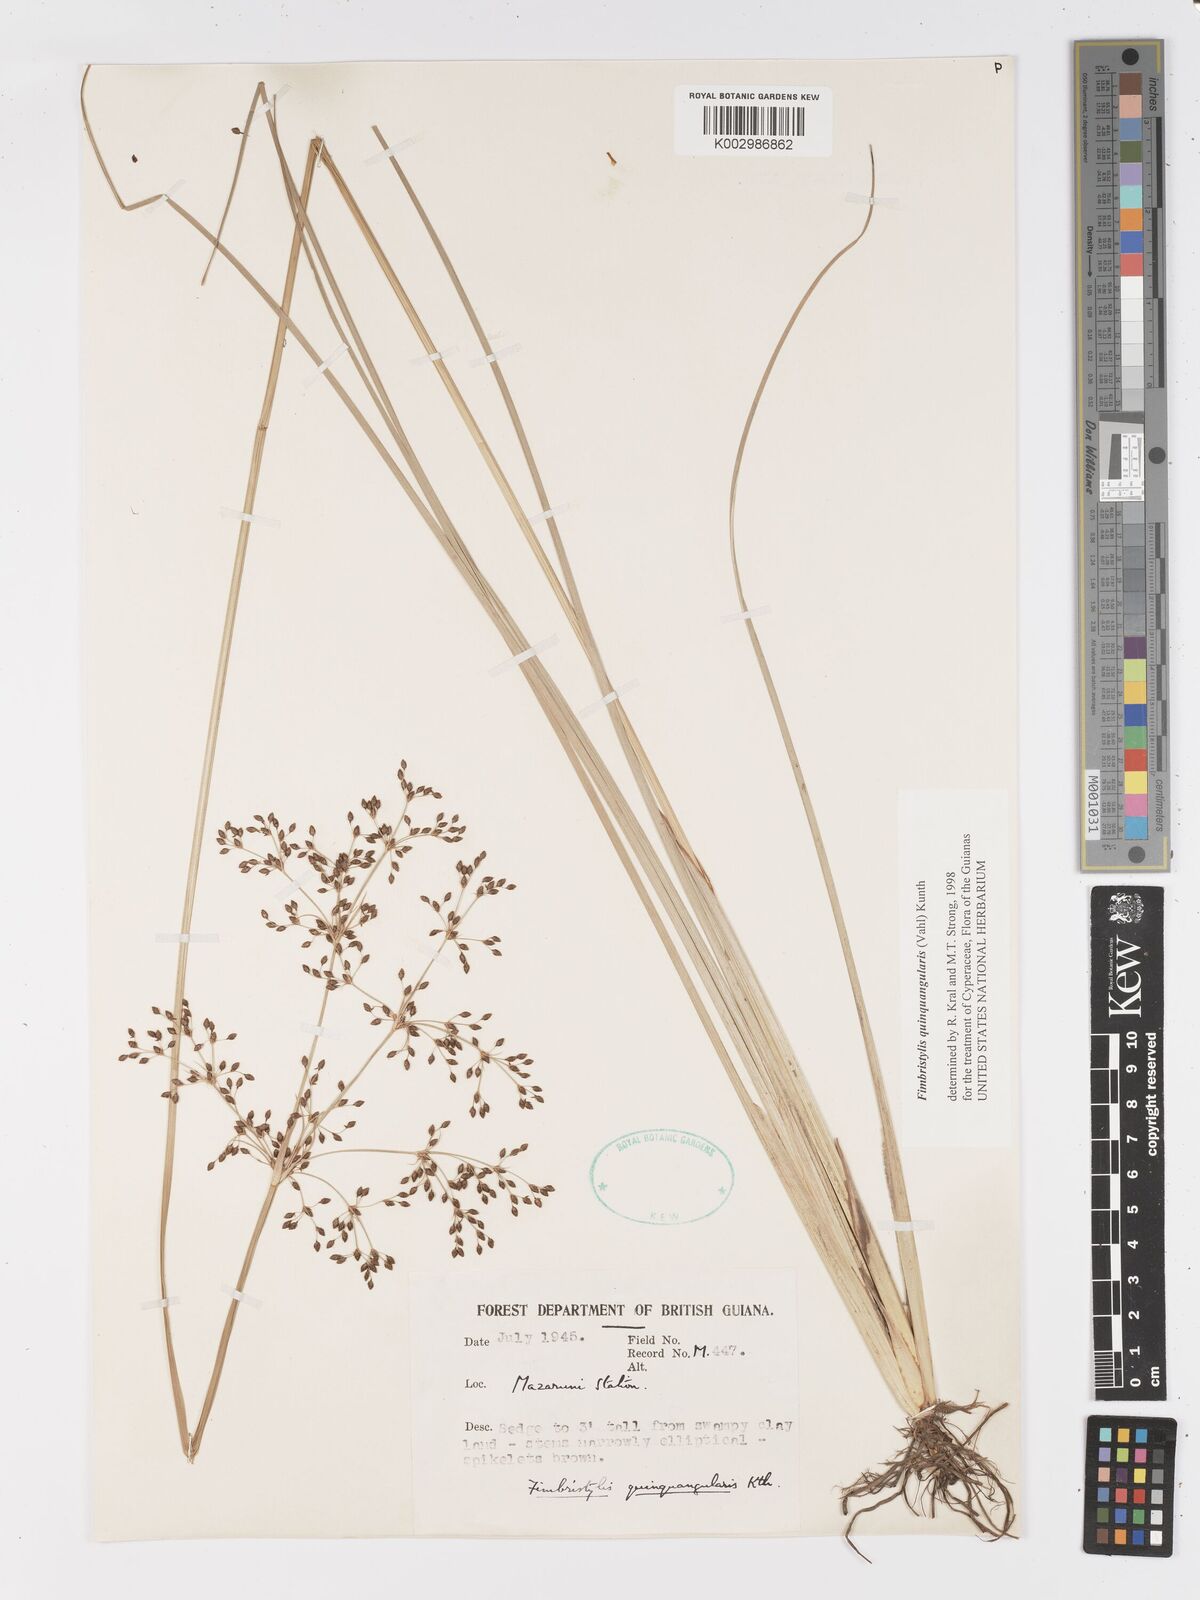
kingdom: Plantae
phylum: Tracheophyta
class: Liliopsida
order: Poales
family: Cyperaceae
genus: Fimbristylis
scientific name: Fimbristylis quinquangularis
